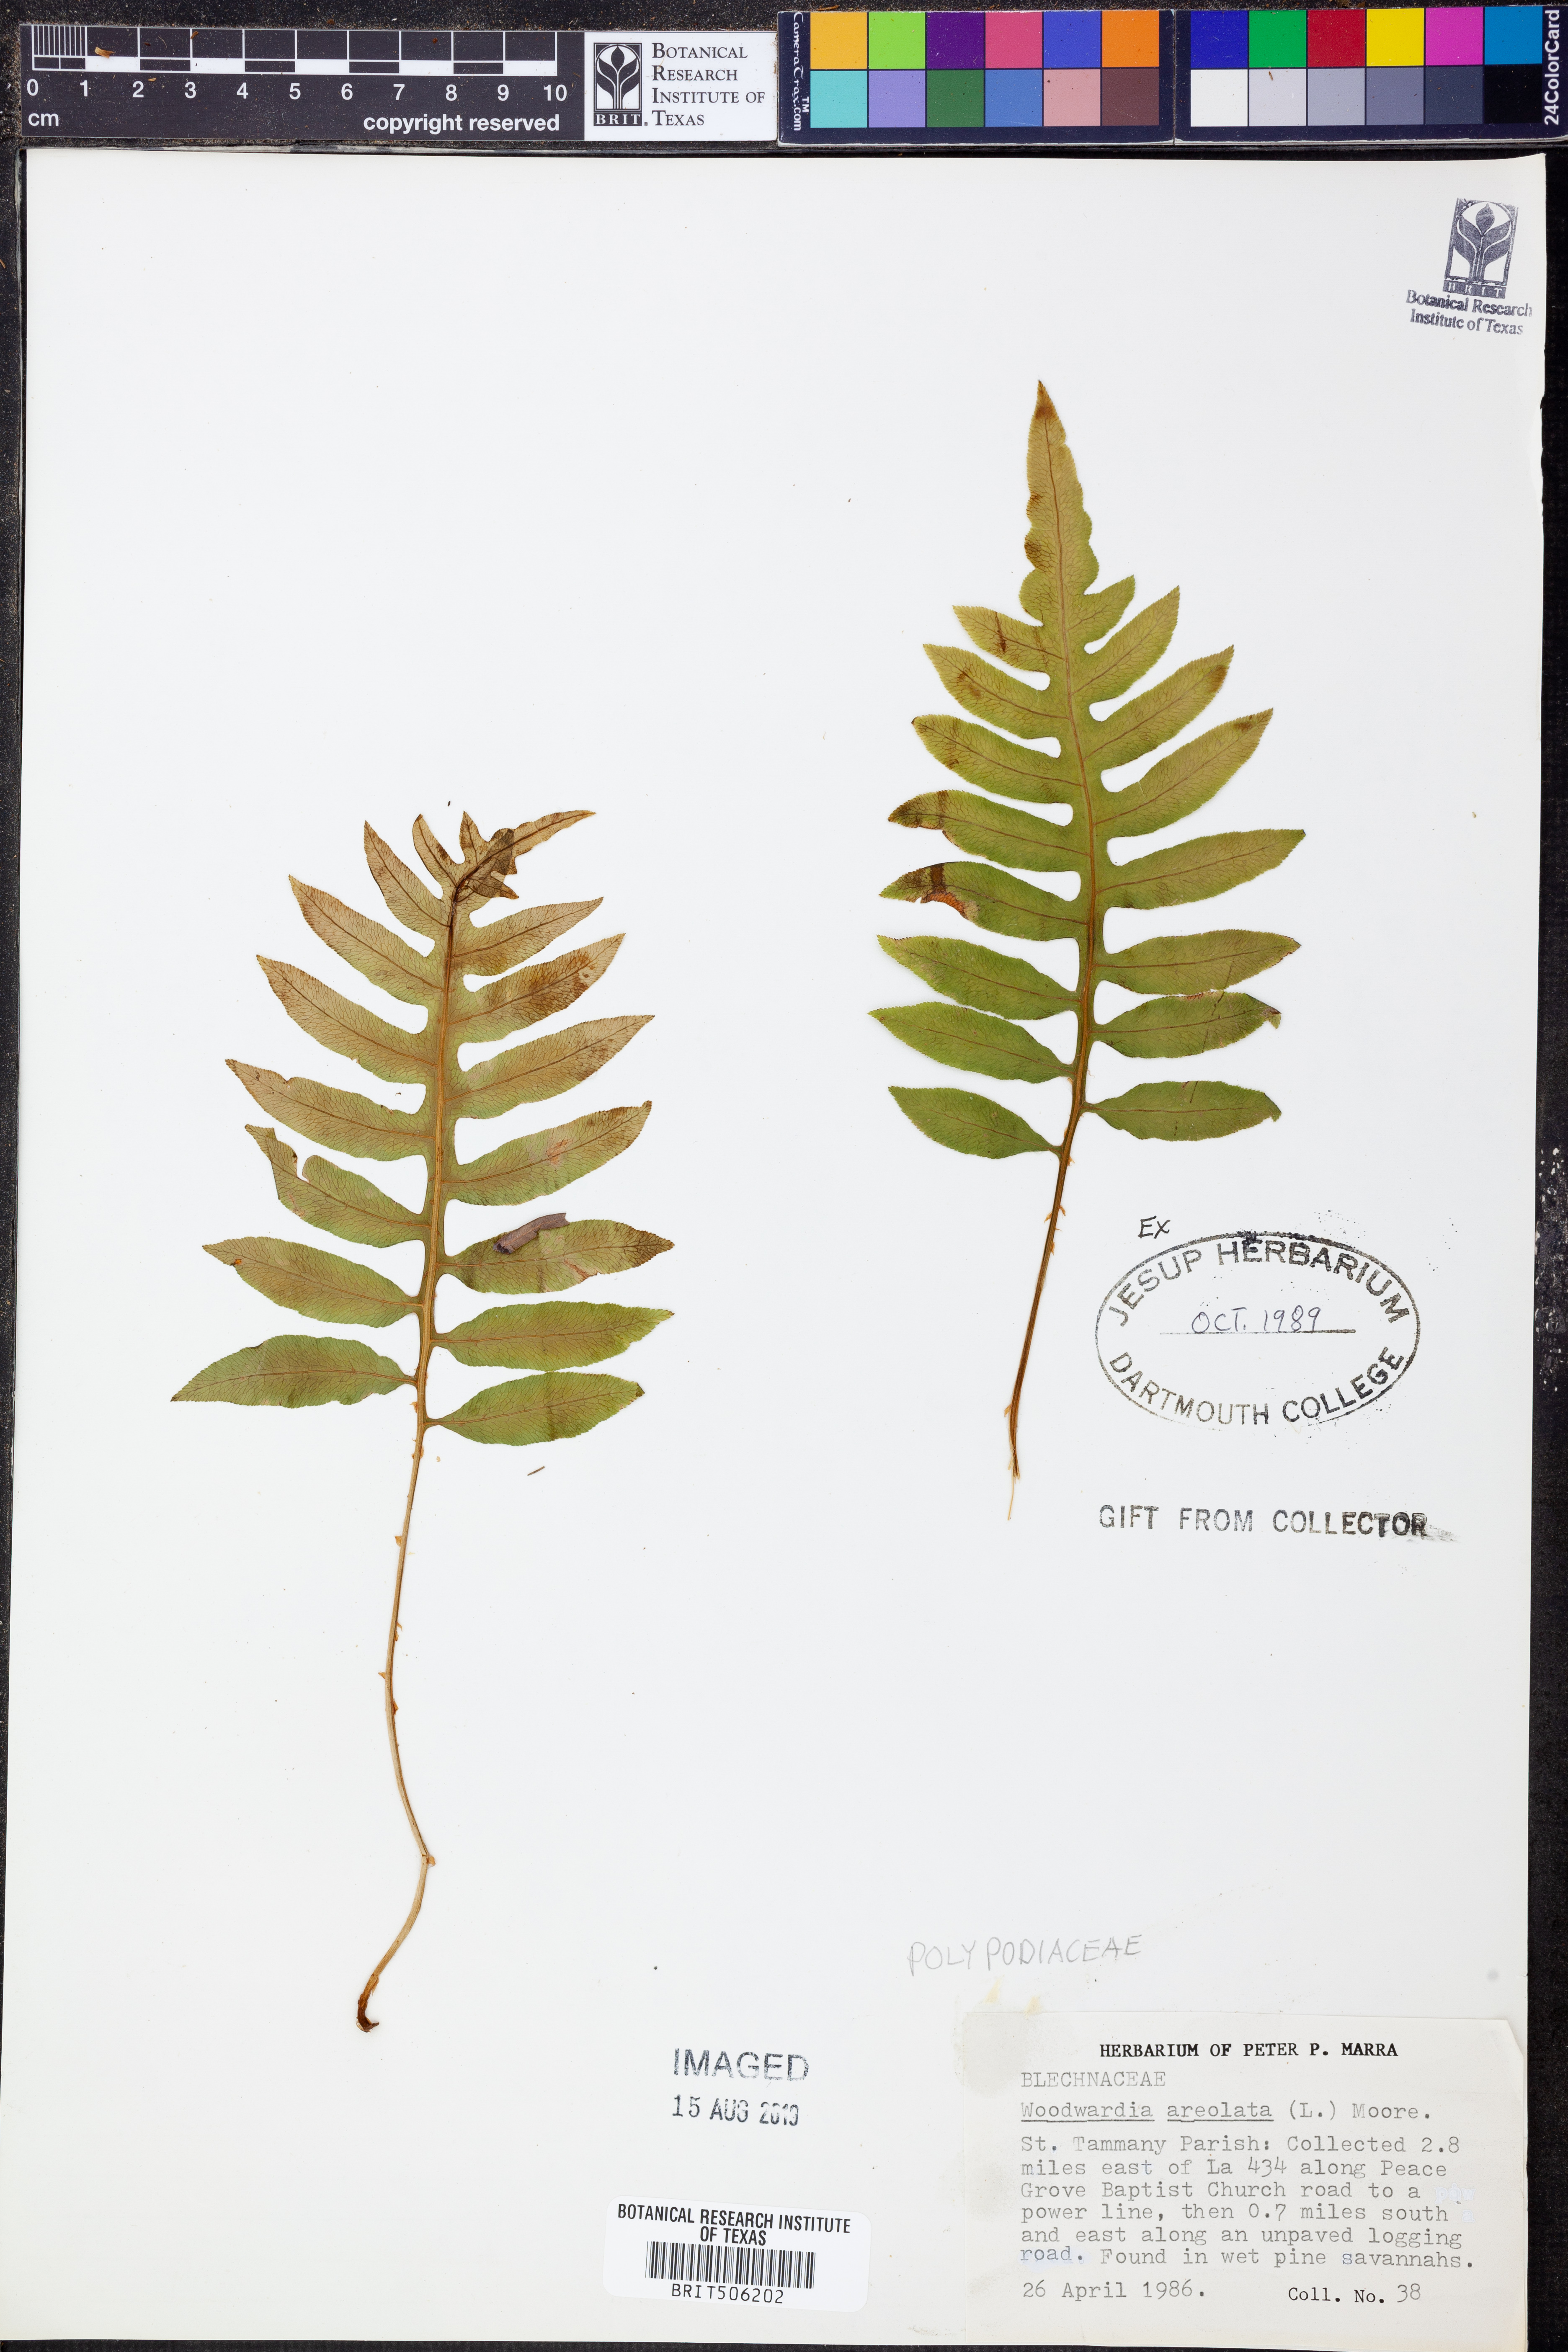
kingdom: Plantae
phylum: Tracheophyta
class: Polypodiopsida
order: Polypodiales
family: Blechnaceae
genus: Lorinseria
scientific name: Lorinseria areolata
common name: Dwarf chain fern
